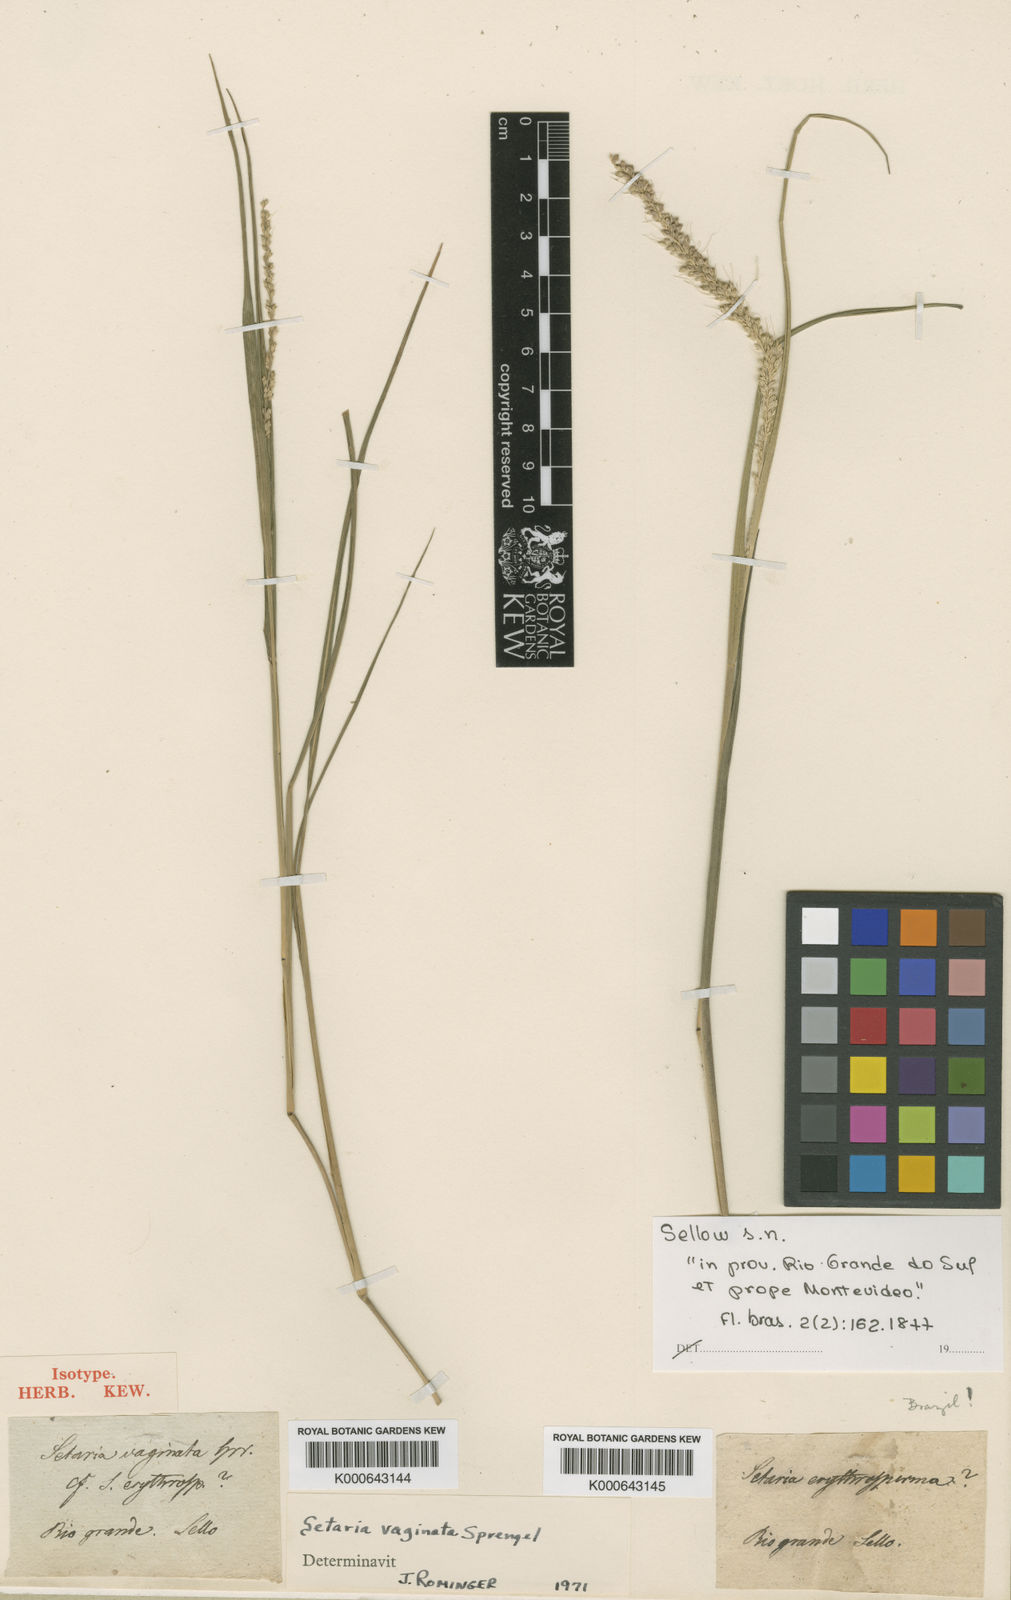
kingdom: Plantae
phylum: Tracheophyta
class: Liliopsida
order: Poales
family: Poaceae
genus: Setaria
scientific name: Setaria setosa
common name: West indies bristle grass
